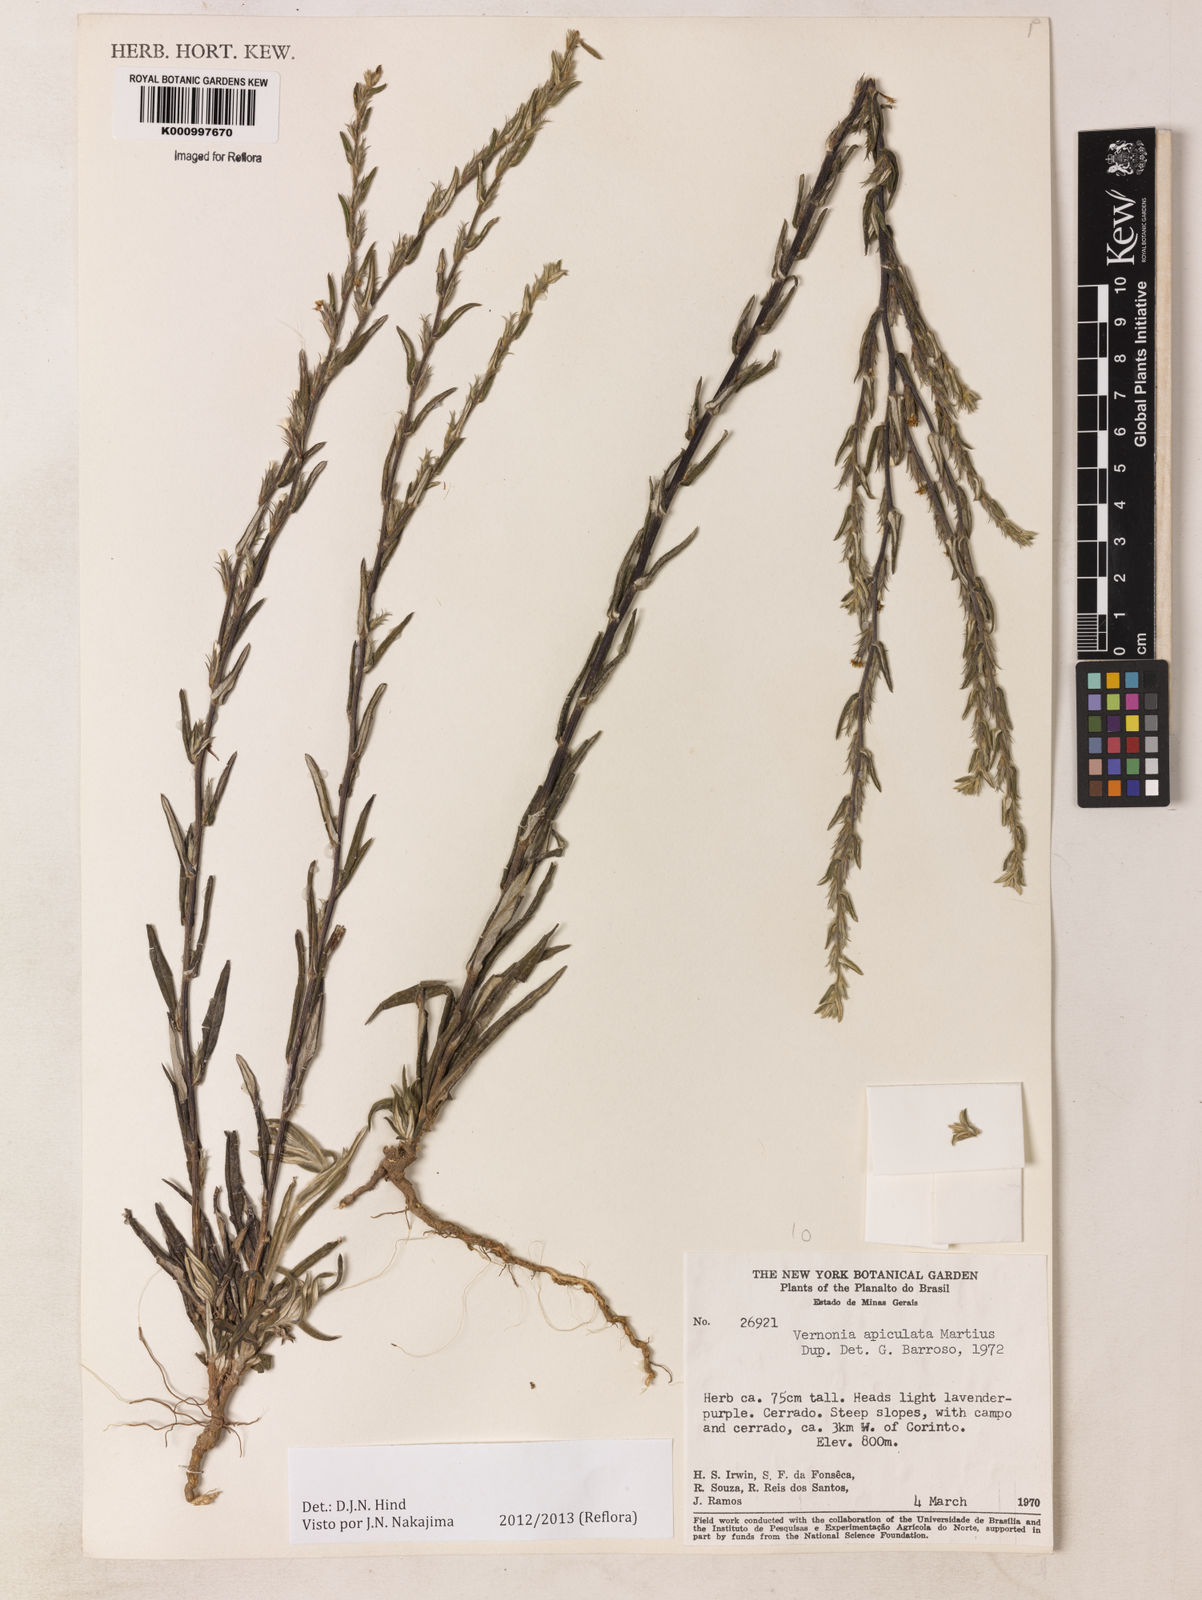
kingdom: Plantae
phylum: Tracheophyta
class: Magnoliopsida
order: Asterales
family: Asteraceae
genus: Stenocephalum
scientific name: Stenocephalum apiculatum
